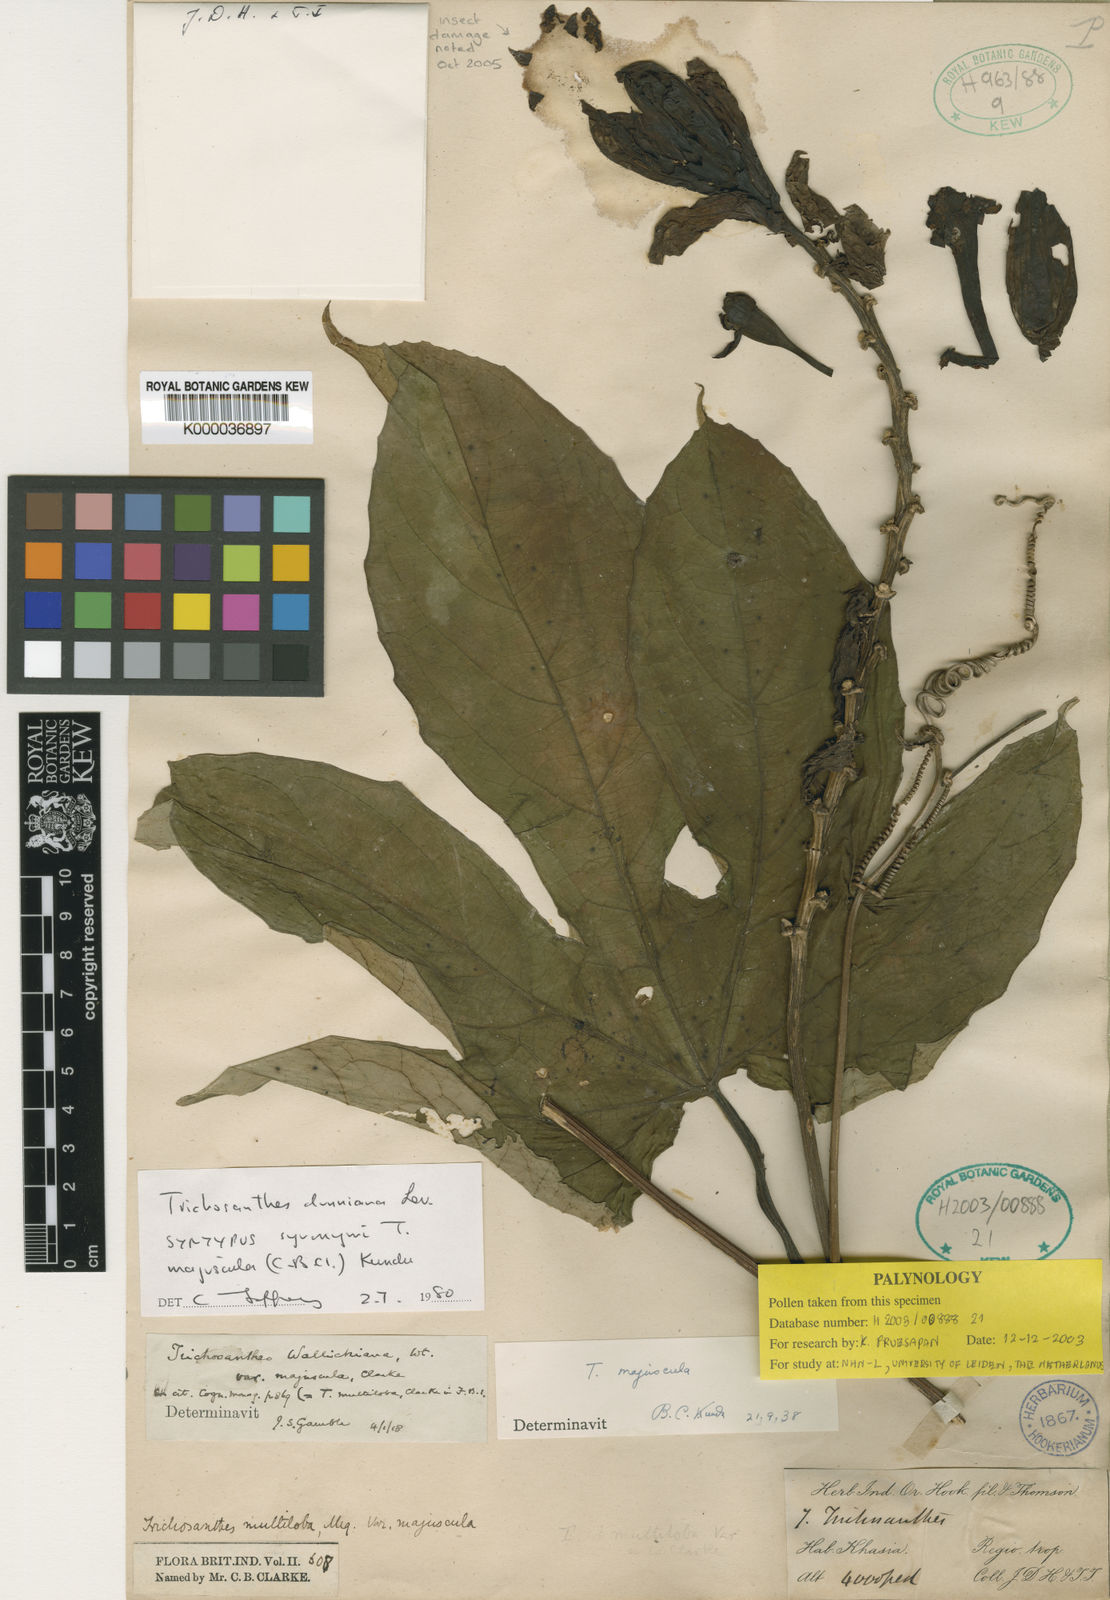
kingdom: Plantae
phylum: Tracheophyta
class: Magnoliopsida
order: Cucurbitales
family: Cucurbitaceae
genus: Trichosanthes
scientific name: Trichosanthes
